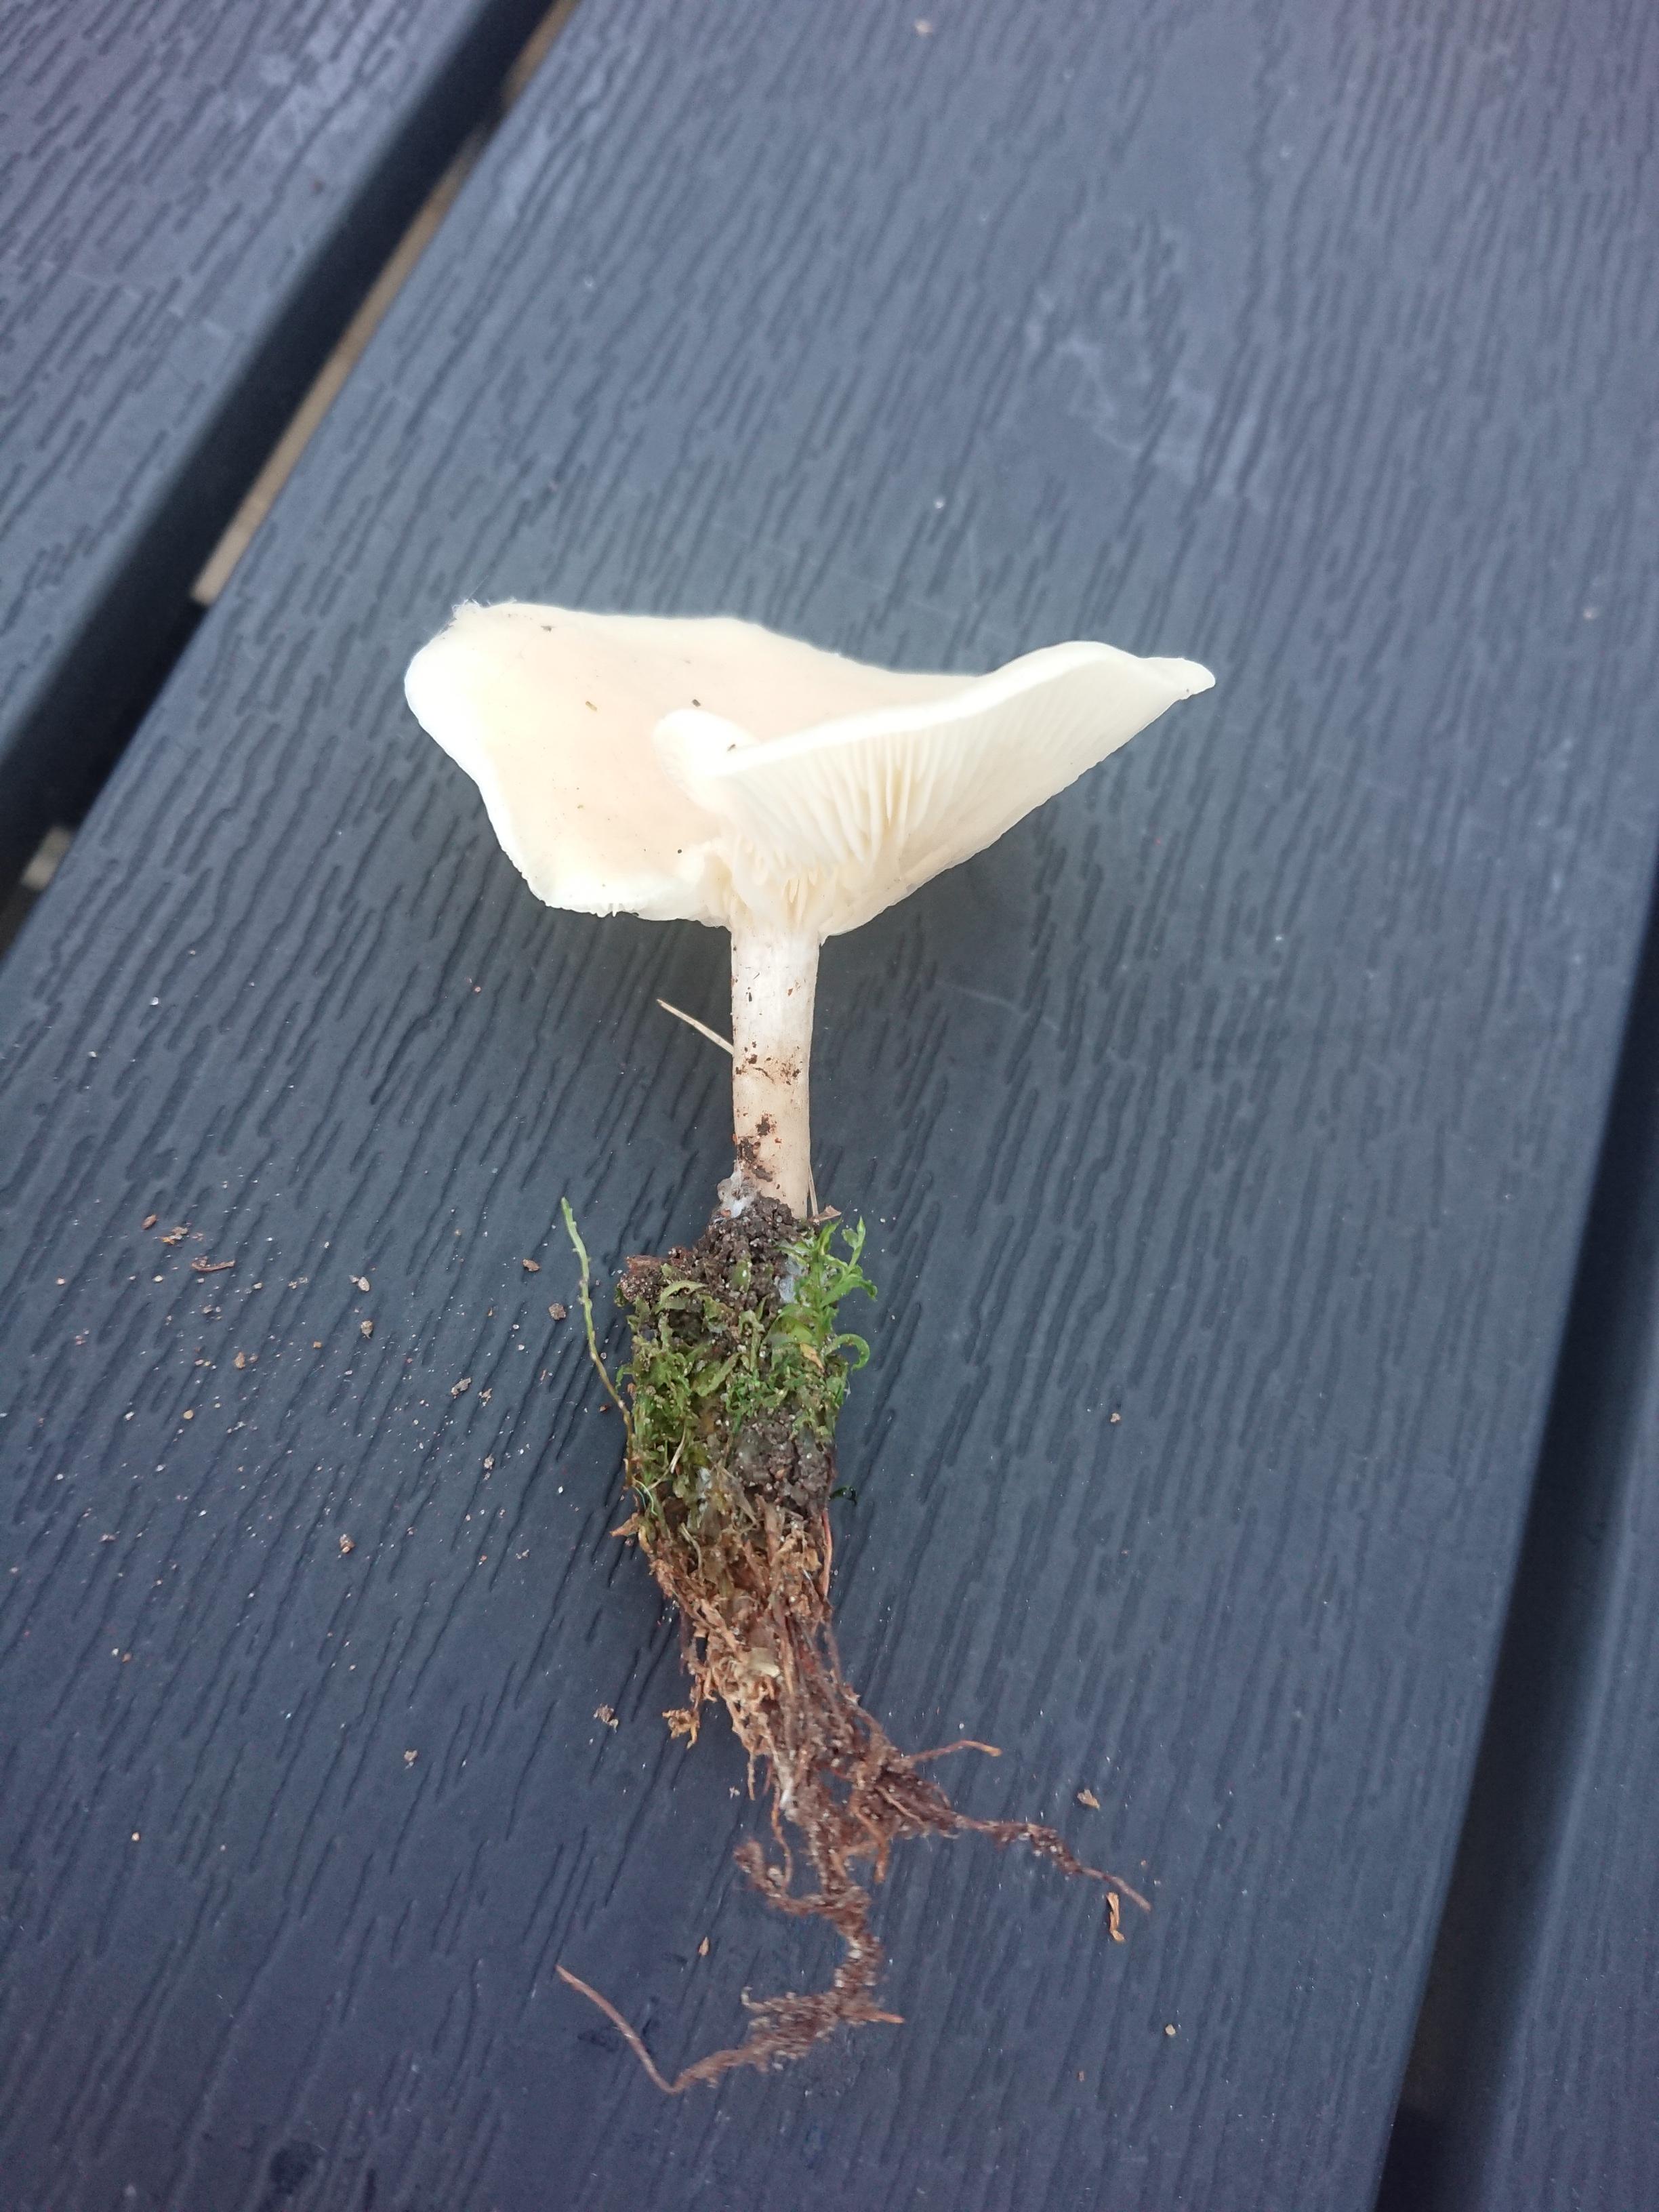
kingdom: Fungi
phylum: Basidiomycota
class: Agaricomycetes
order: Agaricales
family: Tricholomataceae
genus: Clitocybe
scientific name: Clitocybe agrestis
